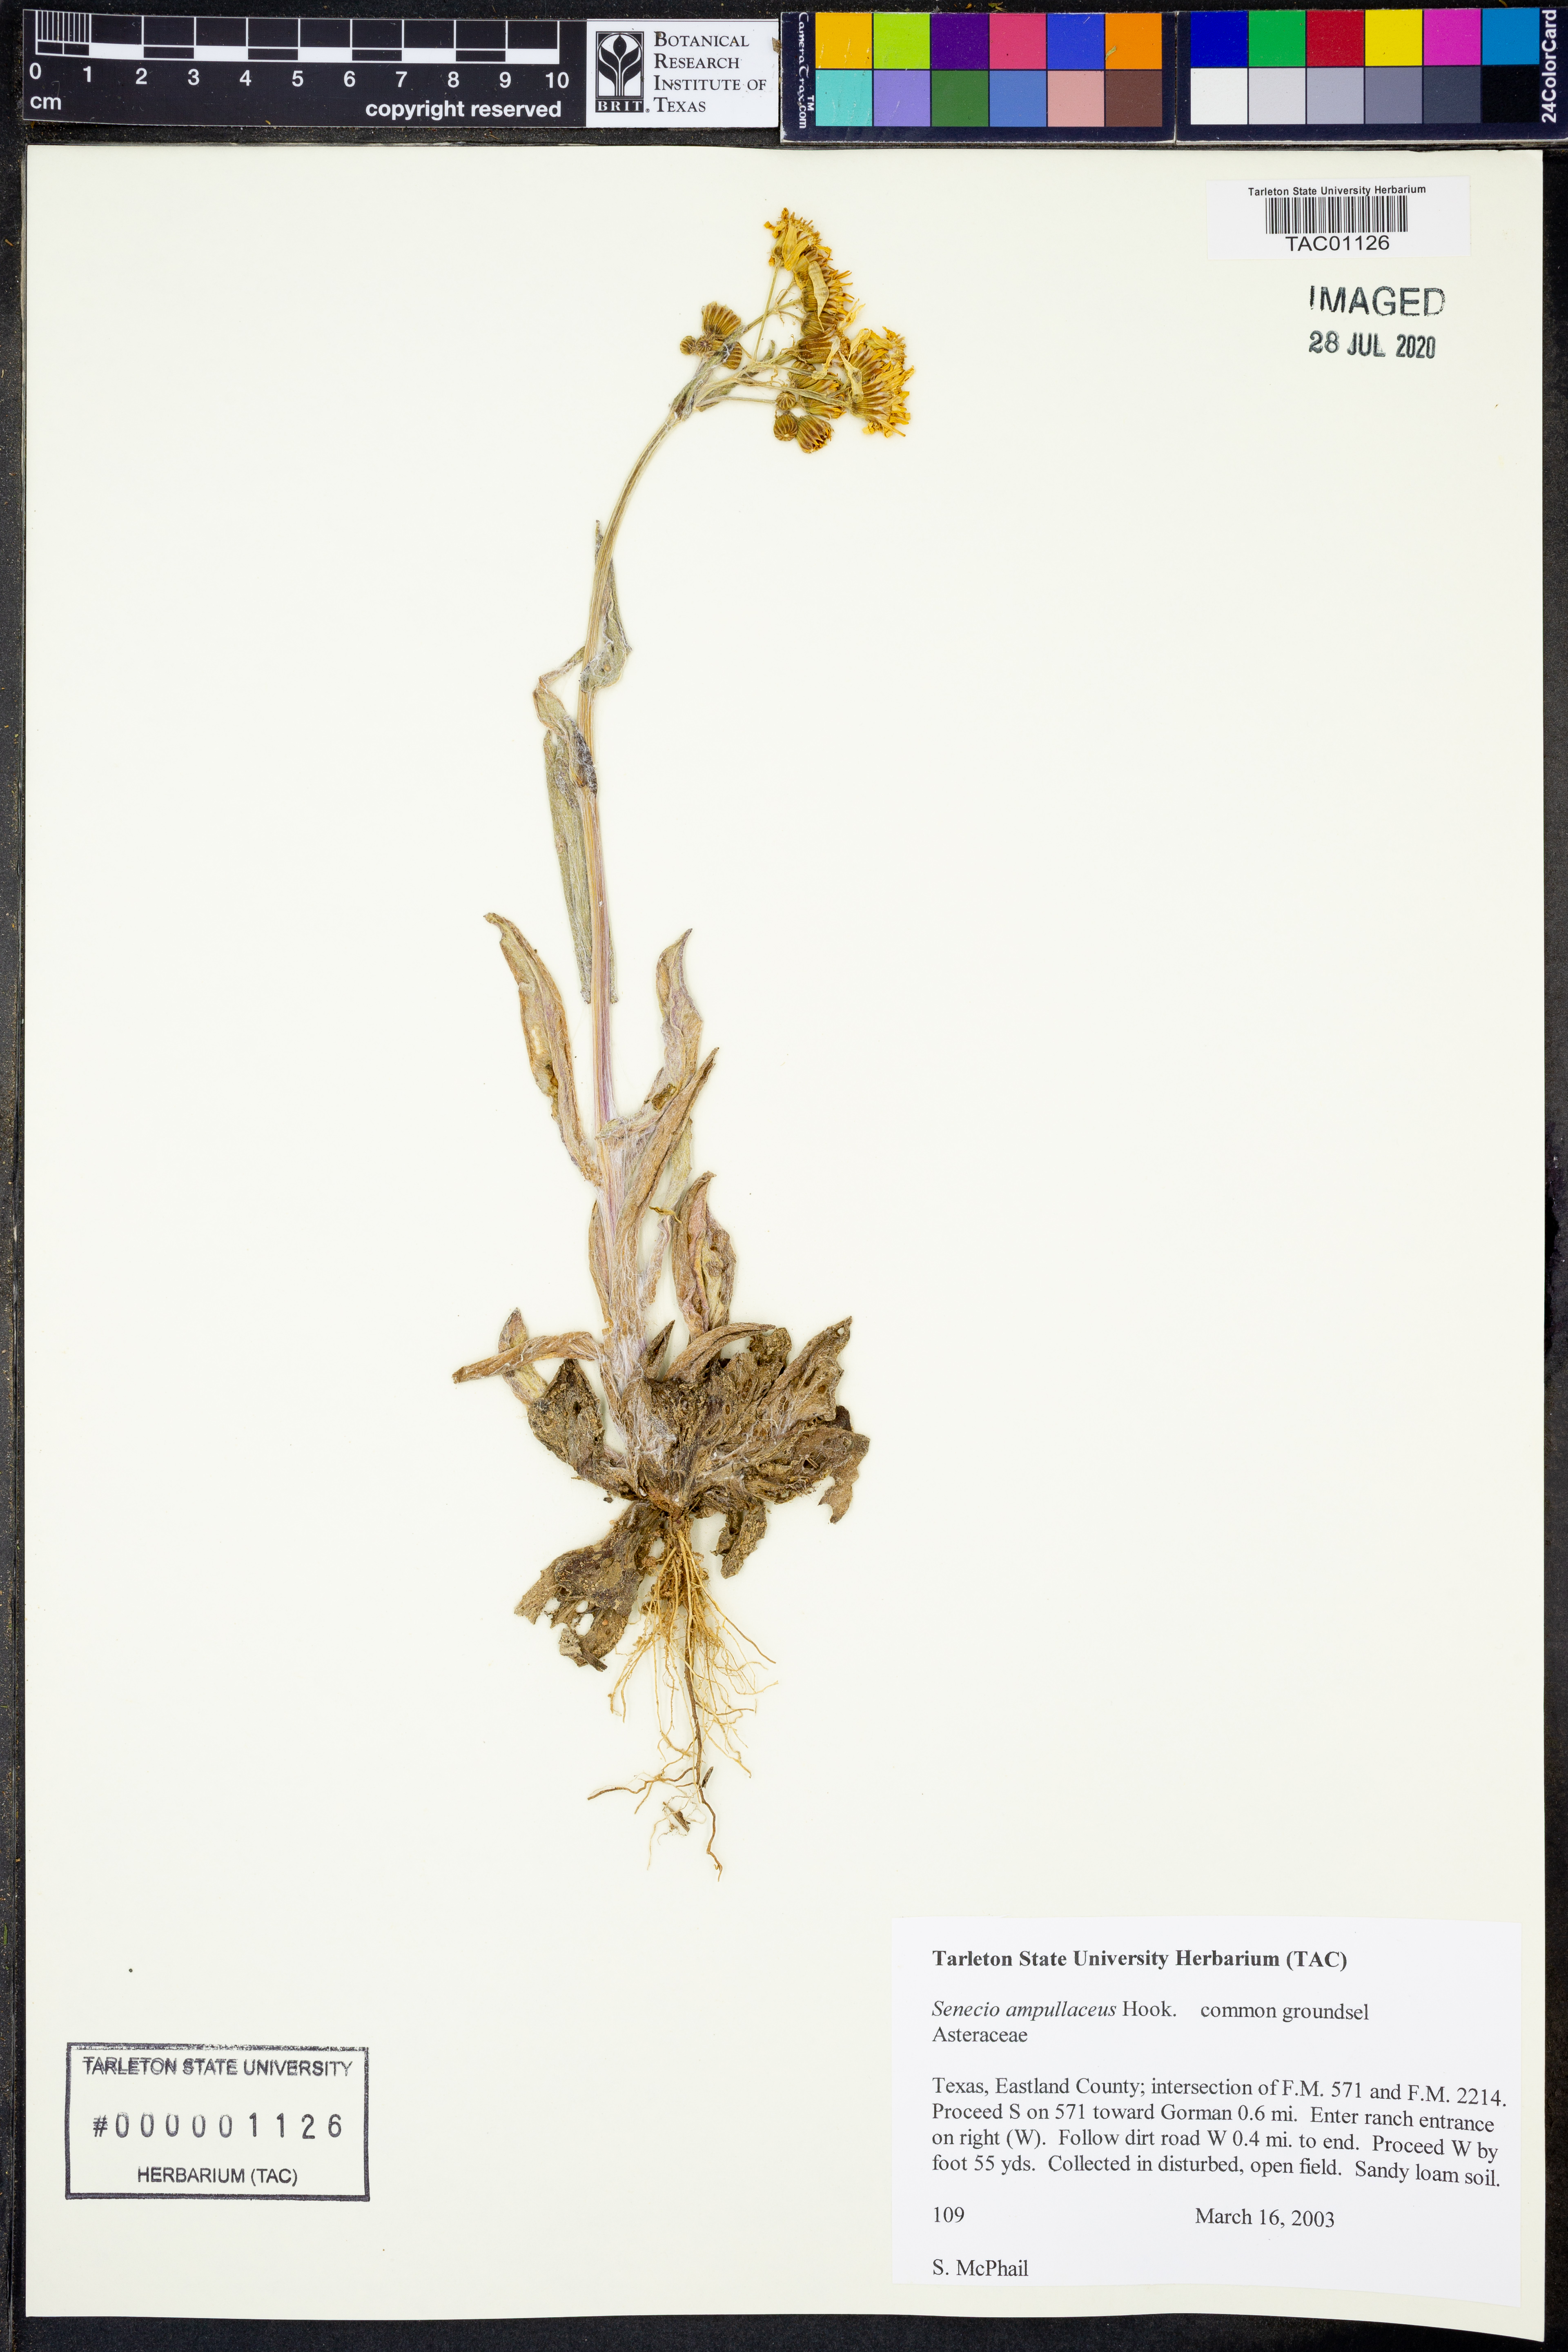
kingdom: Plantae
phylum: Tracheophyta
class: Magnoliopsida
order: Asterales
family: Asteraceae
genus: Senecio
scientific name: Senecio ampullaceus
